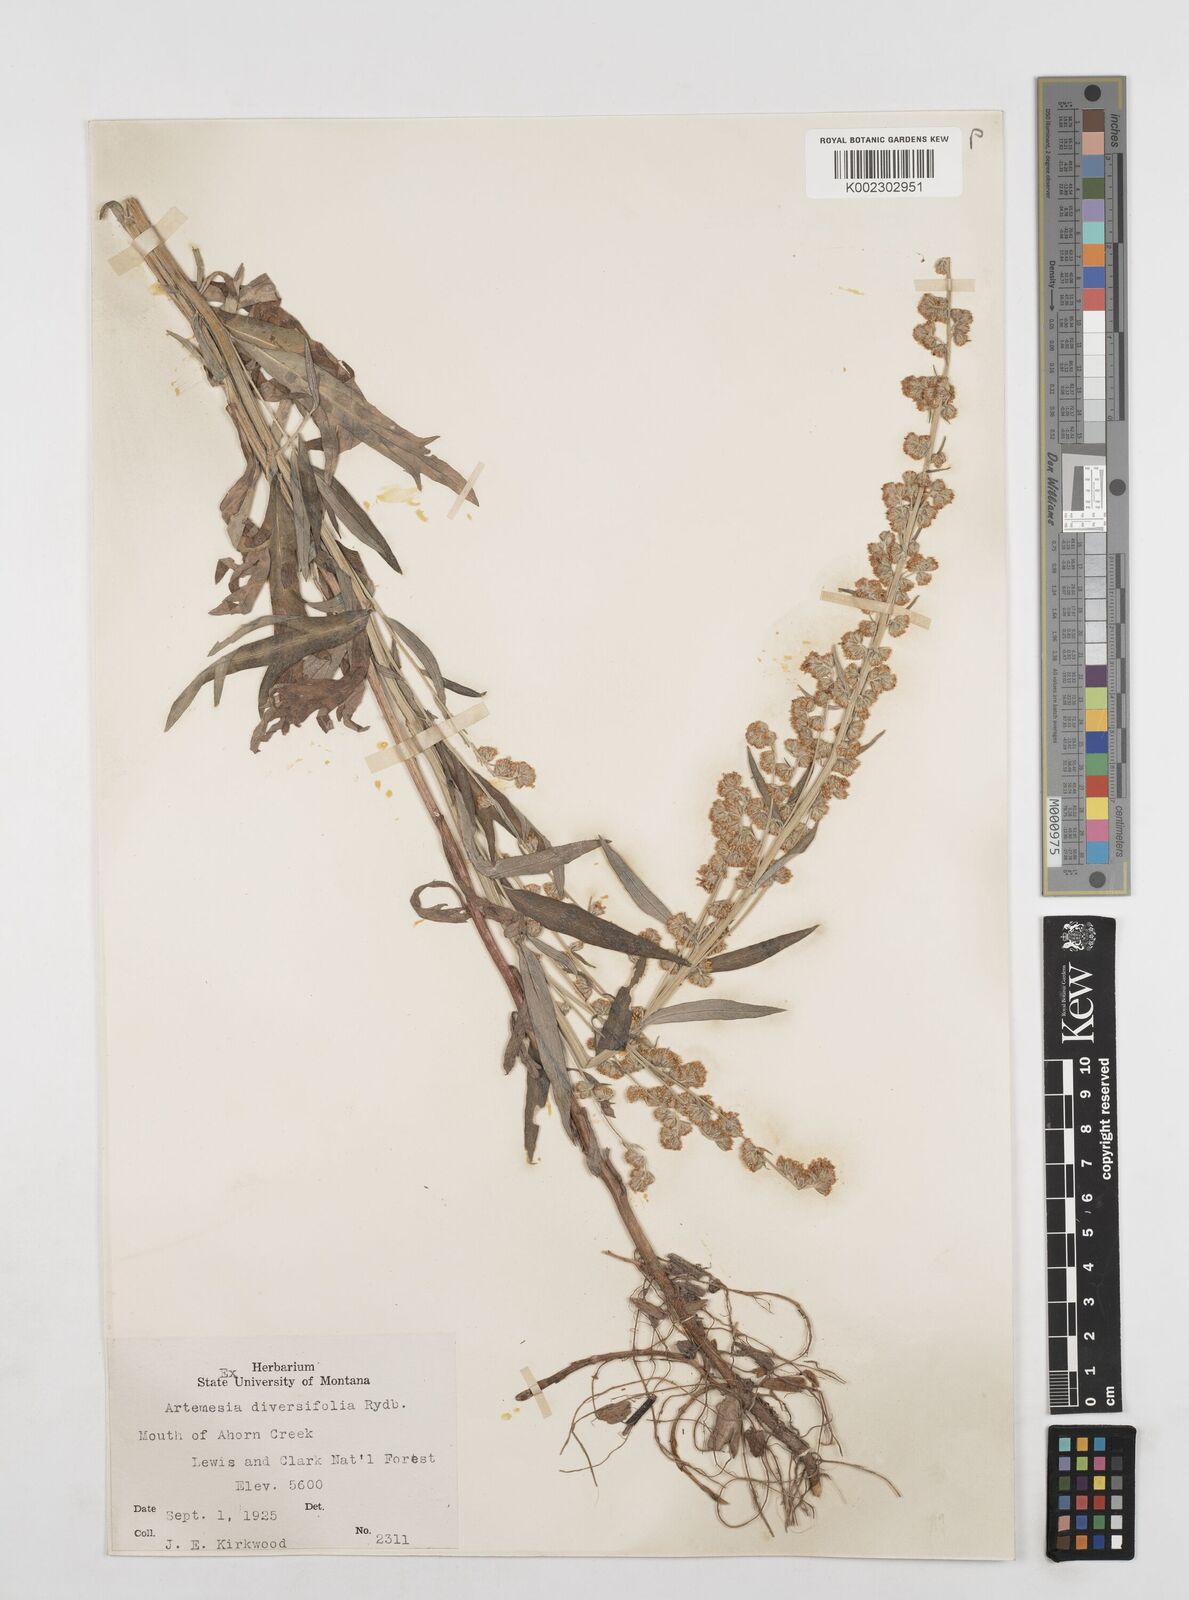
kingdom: Plantae
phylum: Tracheophyta
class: Magnoliopsida
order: Asterales
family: Asteraceae
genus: Artemisia
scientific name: Artemisia ludoviciana
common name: Western mugwort
